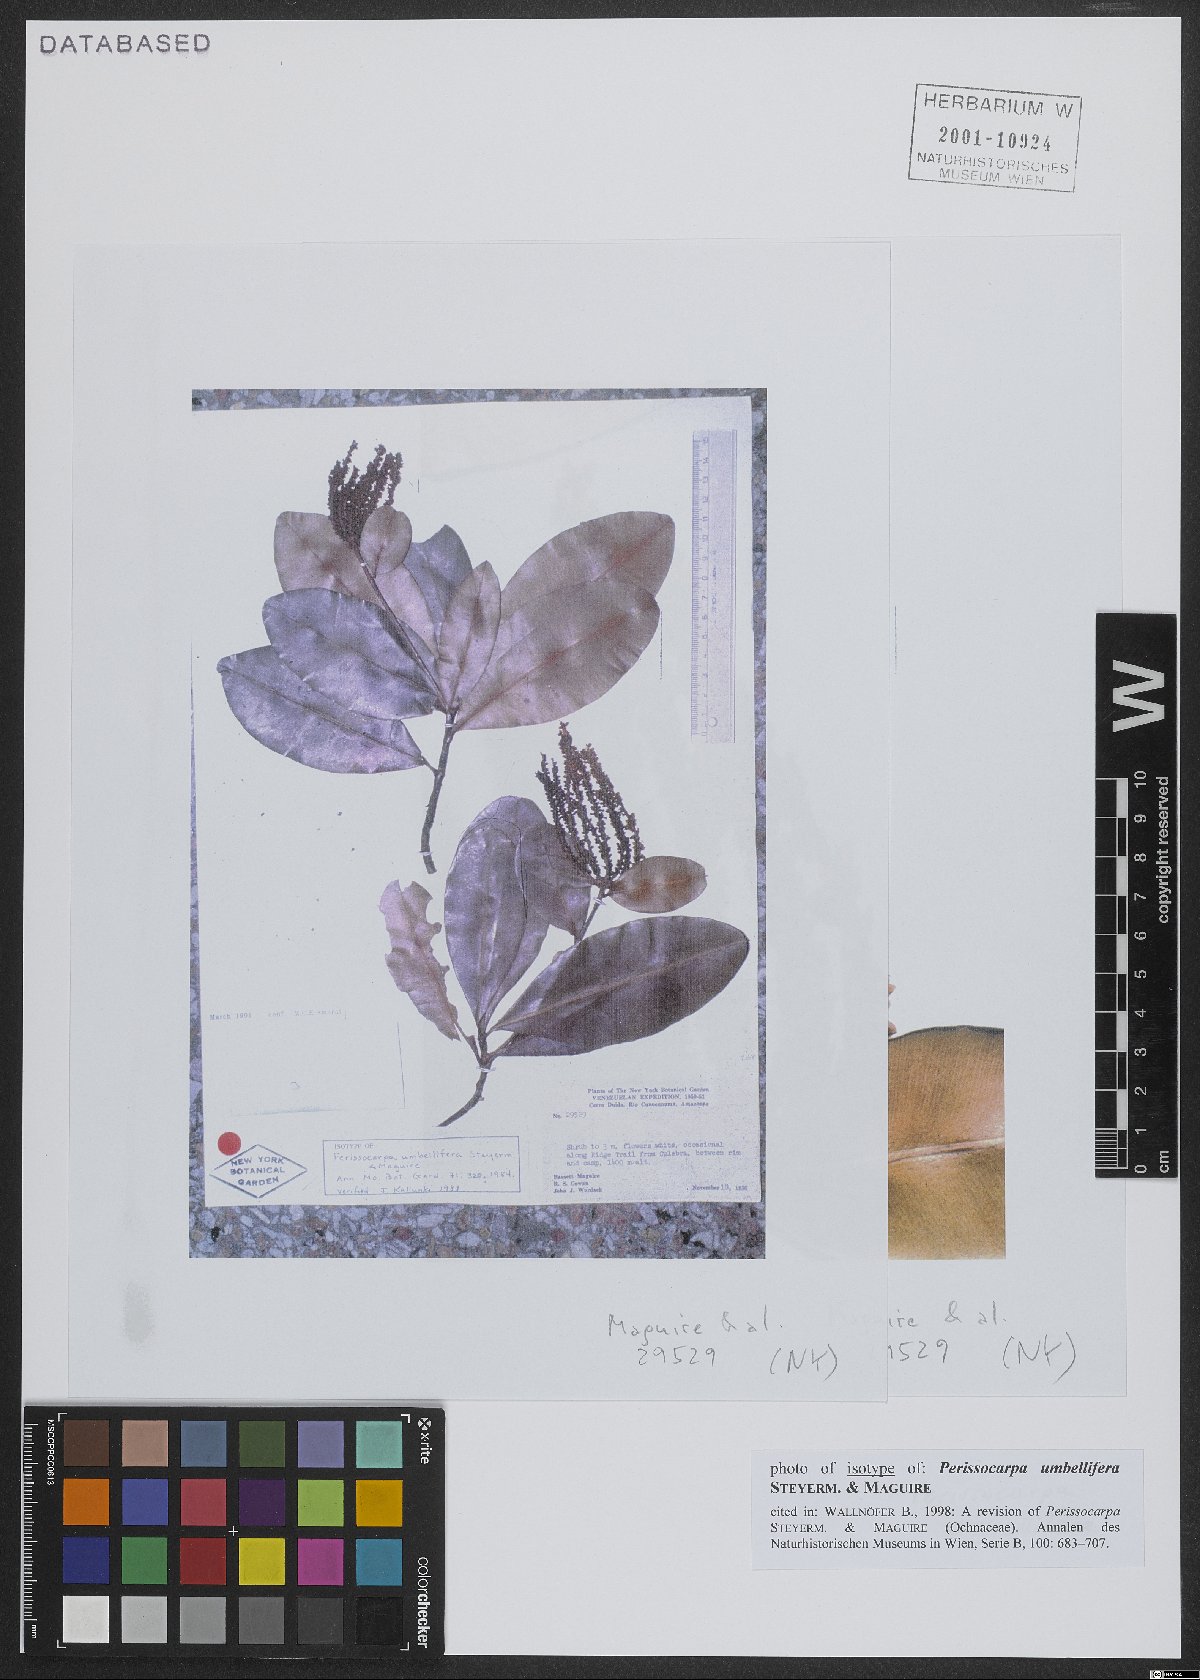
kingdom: Plantae
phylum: Tracheophyta
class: Magnoliopsida
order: Malpighiales
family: Ochnaceae
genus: Perissocarpa
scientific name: Perissocarpa umbellifera
